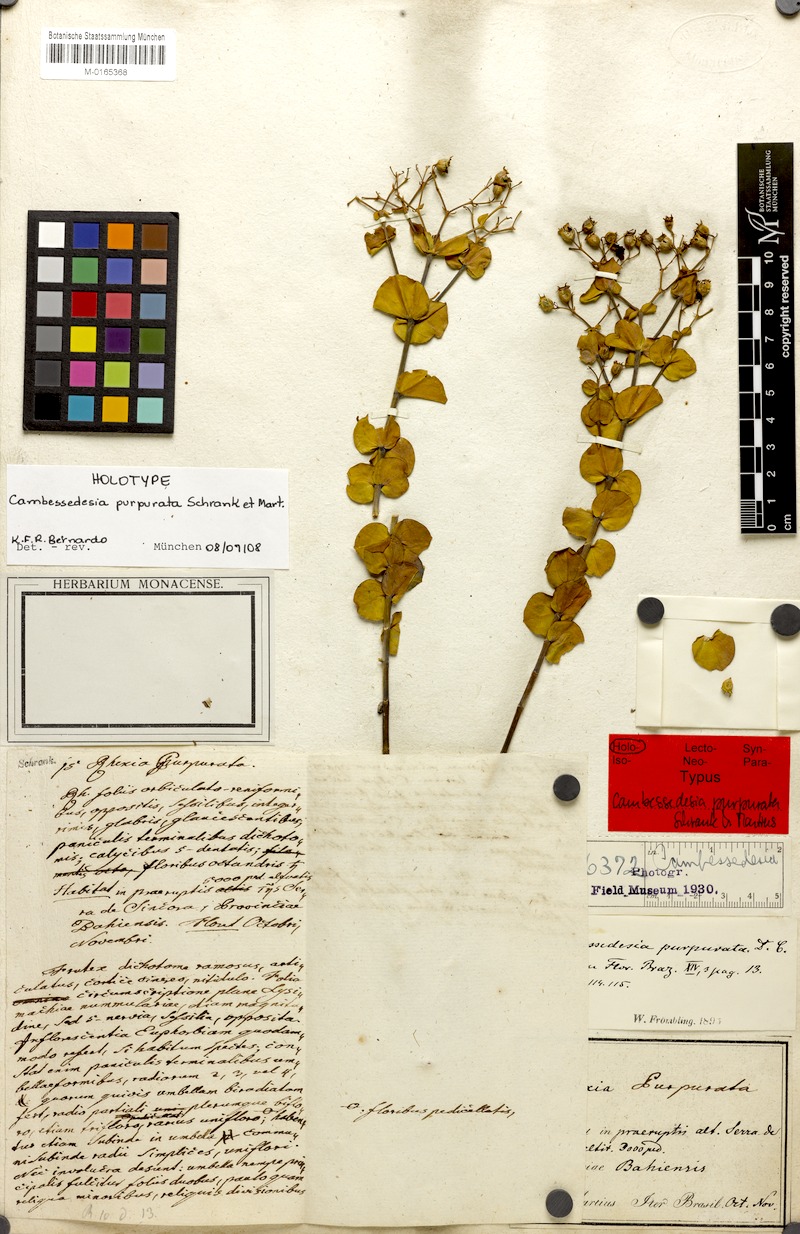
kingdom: Plantae
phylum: Tracheophyta
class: Magnoliopsida
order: Myrtales
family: Melastomataceae
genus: Cambessedesia
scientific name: Cambessedesia purpurata
